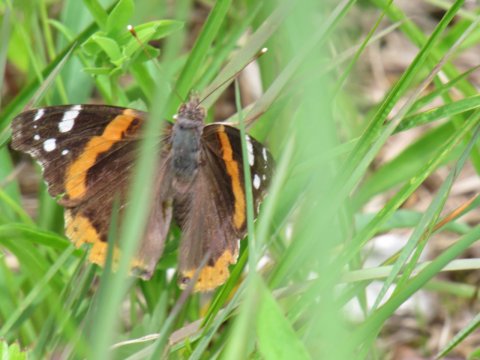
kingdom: Animalia
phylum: Arthropoda
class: Insecta
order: Lepidoptera
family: Nymphalidae
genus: Vanessa
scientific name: Vanessa atalanta
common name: Red Admiral
